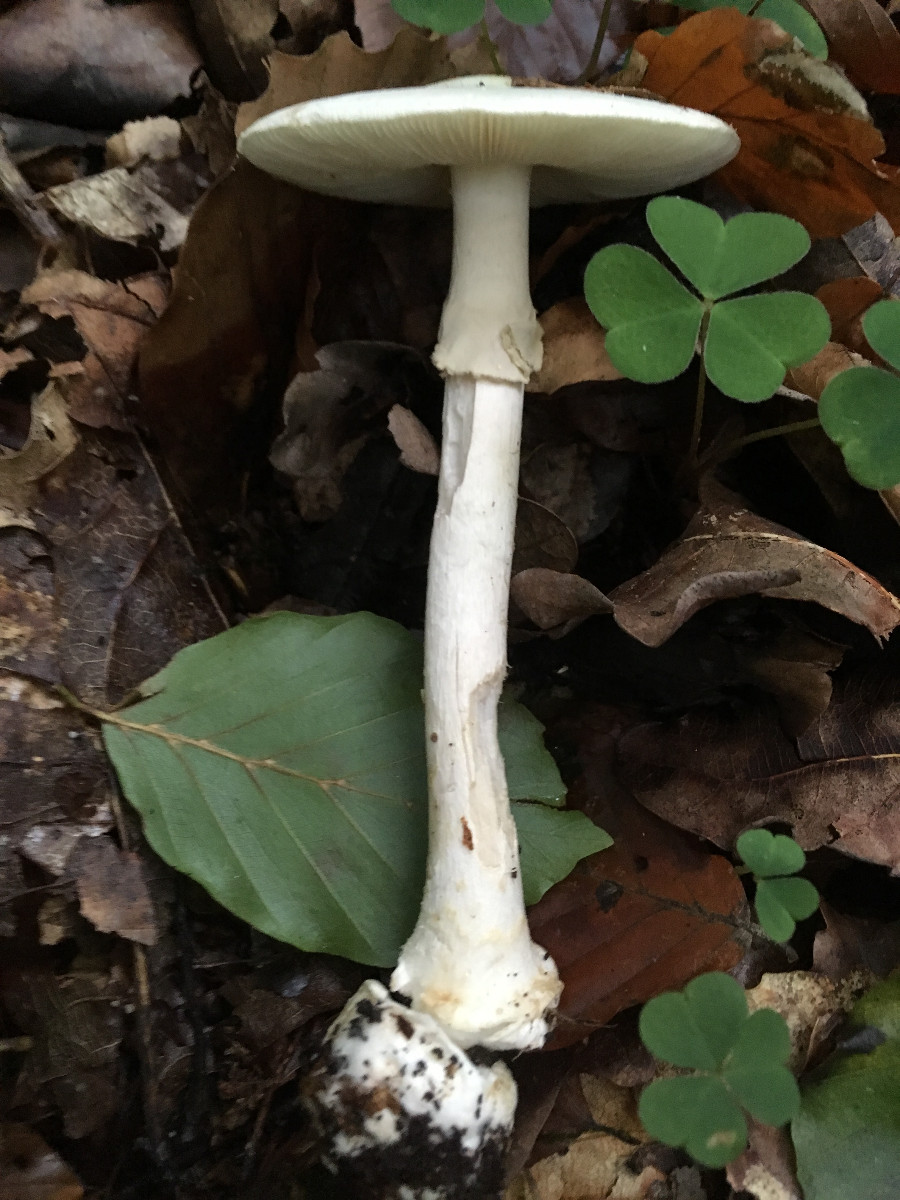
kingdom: Fungi
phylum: Basidiomycota
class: Agaricomycetes
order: Agaricales
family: Amanitaceae
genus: Amanita
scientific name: Amanita citrina
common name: False death-cap
